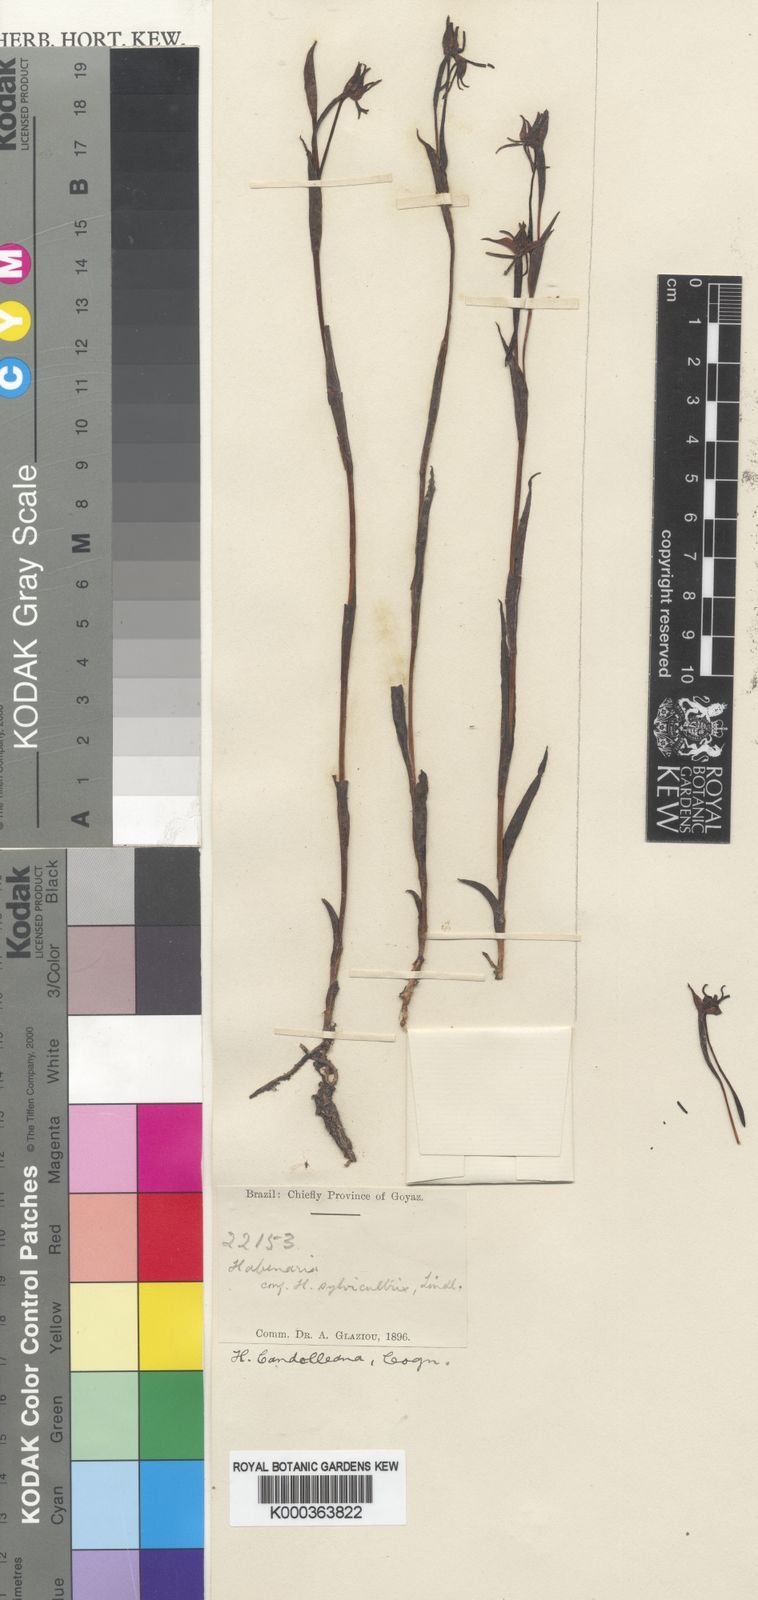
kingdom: Plantae
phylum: Tracheophyta
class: Liliopsida
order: Asparagales
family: Orchidaceae
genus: Habenaria
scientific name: Habenaria candolleana
